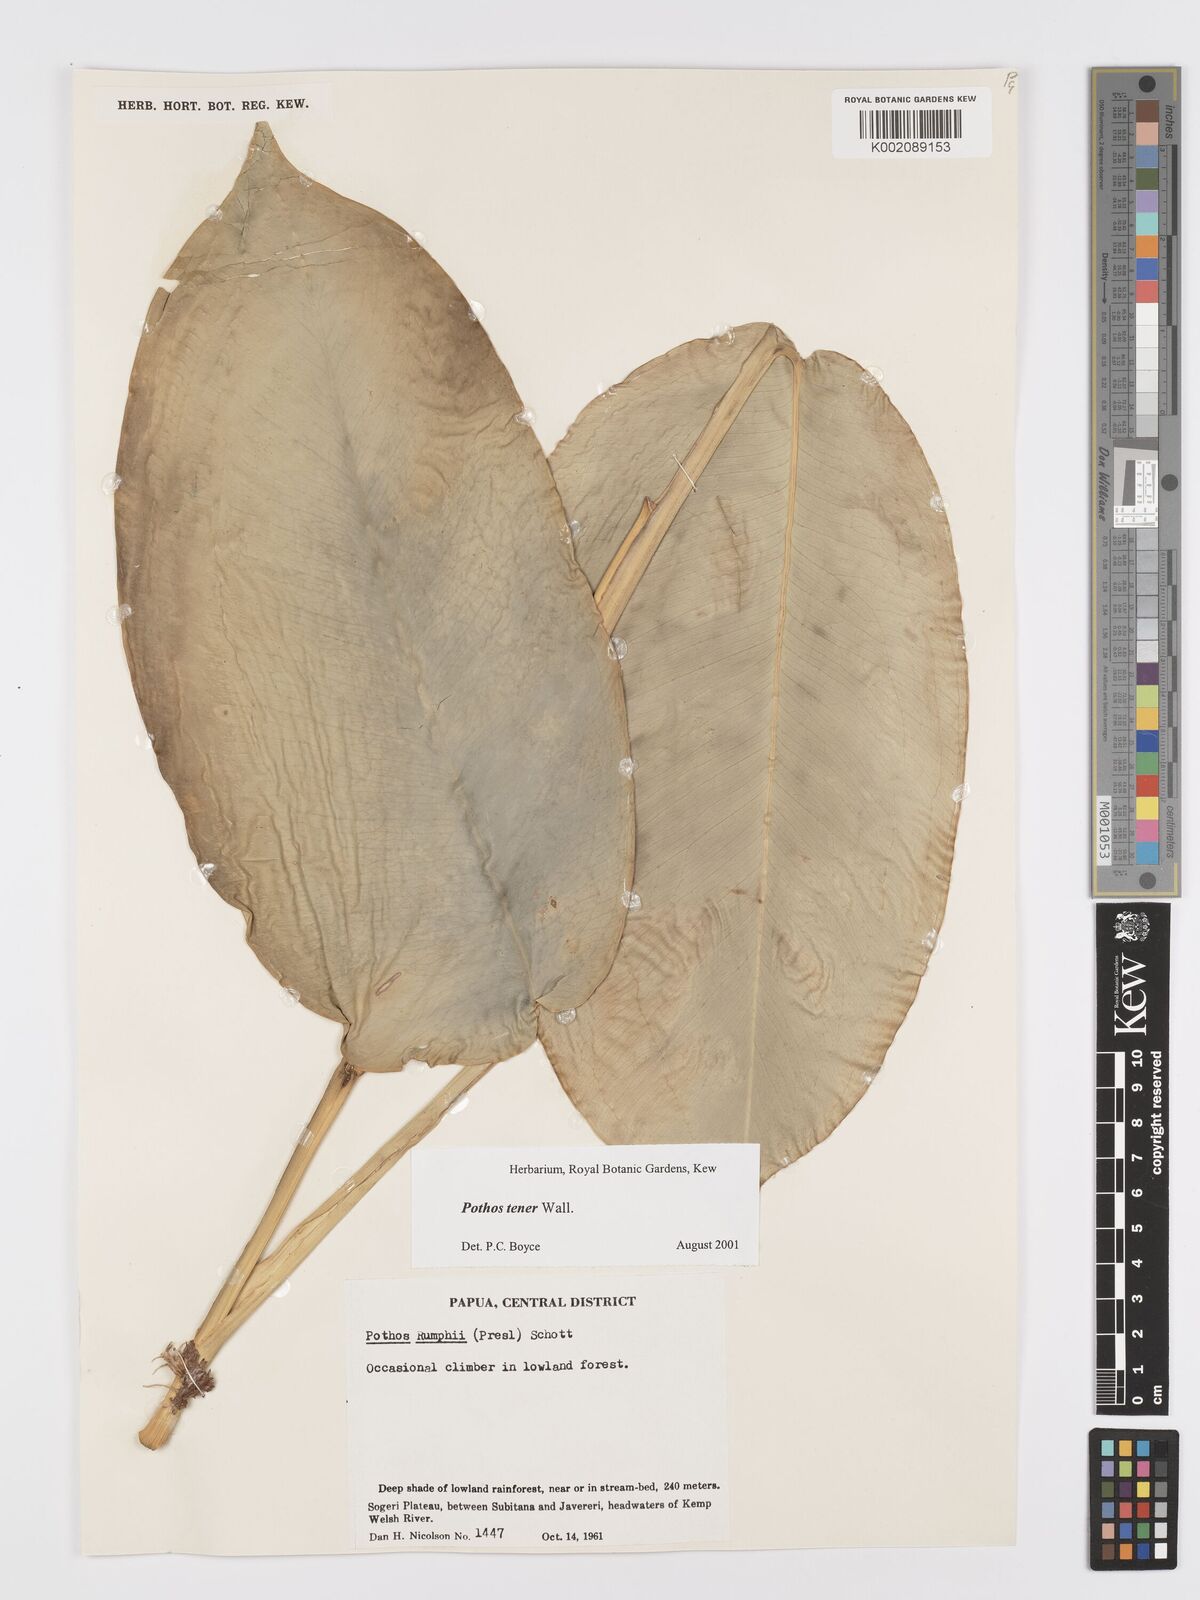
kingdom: Plantae
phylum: Tracheophyta
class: Liliopsida
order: Alismatales
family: Araceae
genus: Pothos
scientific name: Pothos tener
